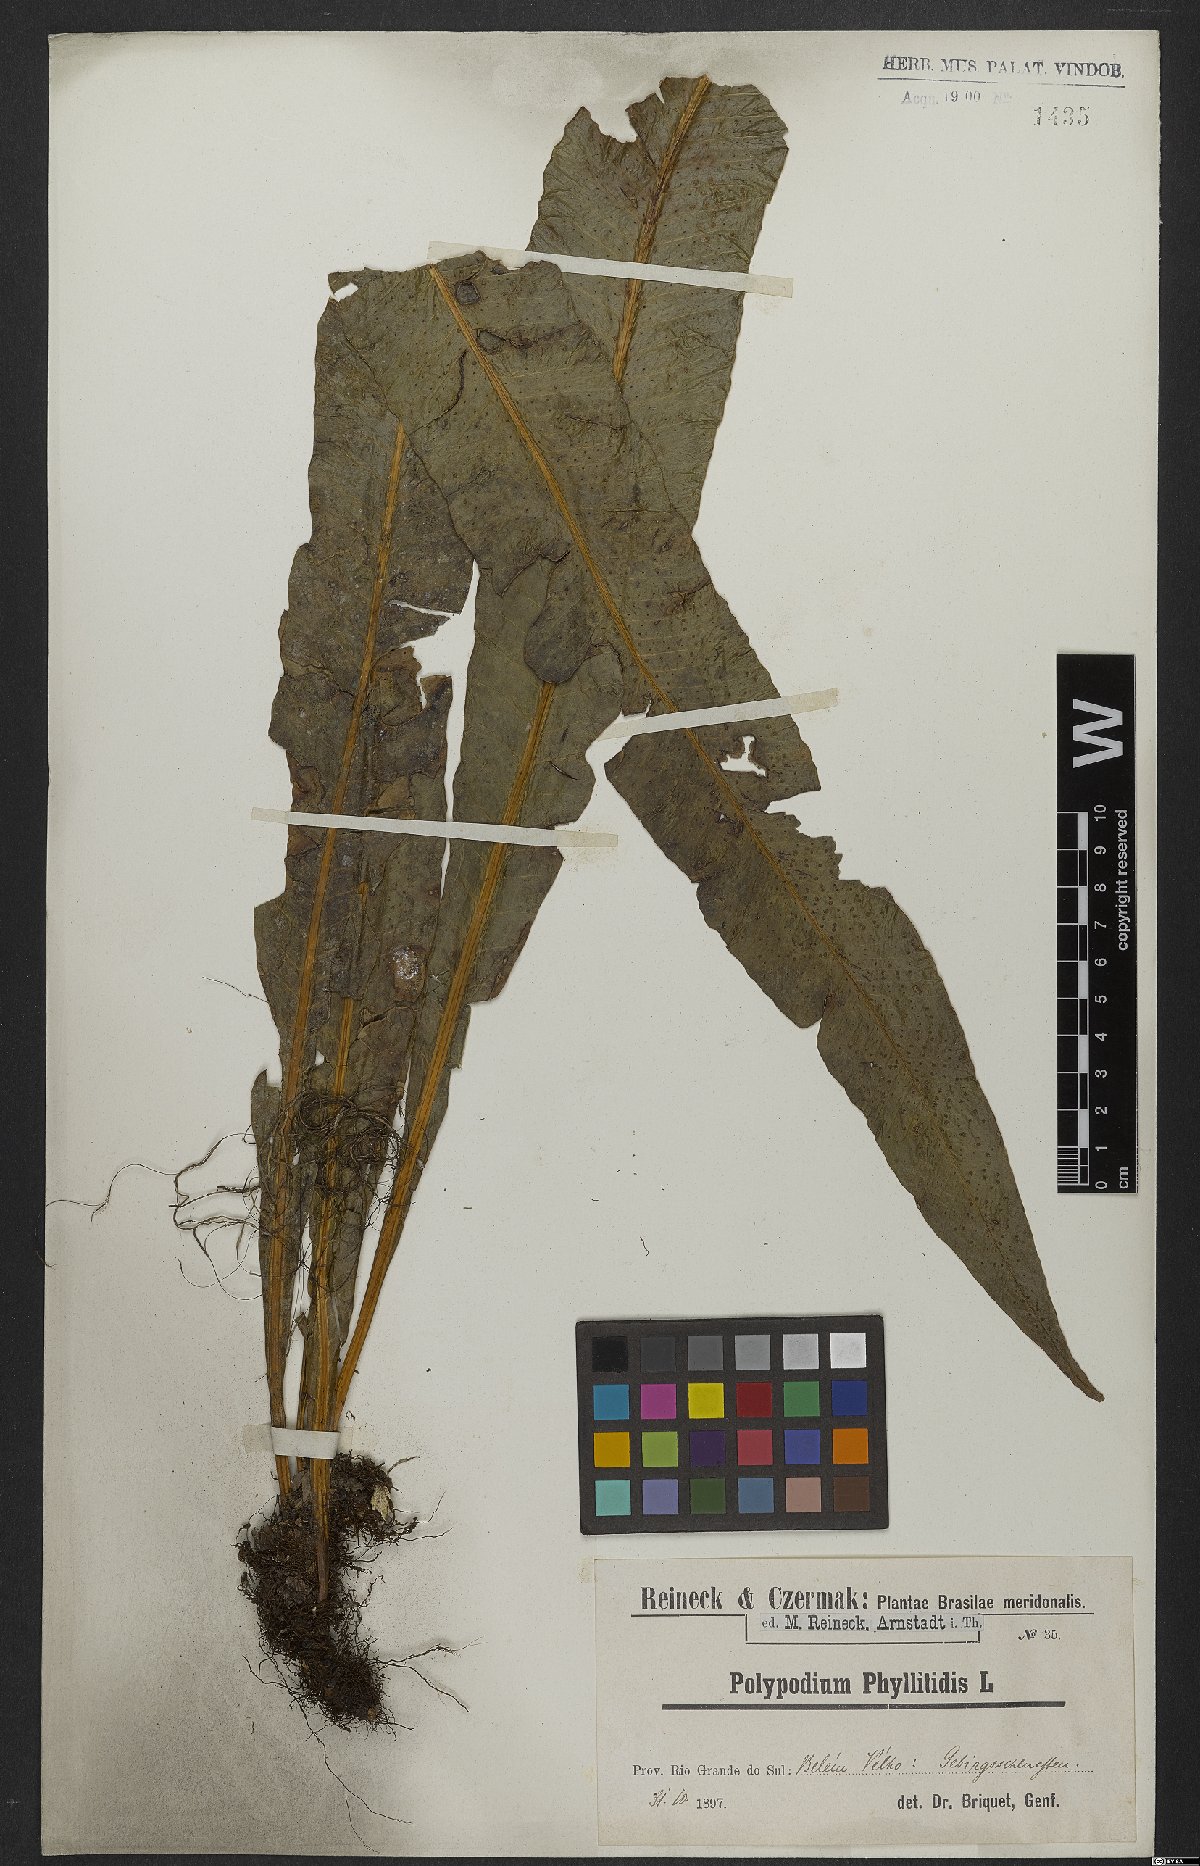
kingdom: Plantae
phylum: Tracheophyta
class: Polypodiopsida
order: Polypodiales
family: Polypodiaceae
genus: Campyloneurum
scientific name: Campyloneurum phyllitidis
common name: Cow-tongue fern
